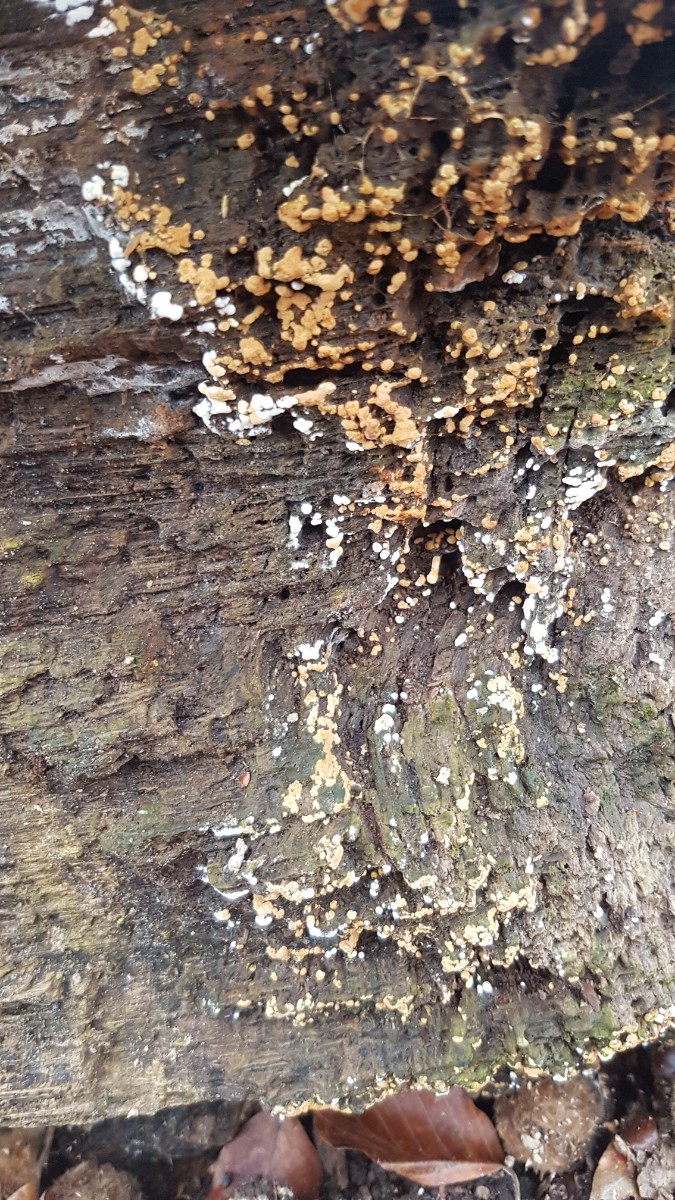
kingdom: Fungi
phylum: Basidiomycota
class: Agaricomycetes
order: Cantharellales
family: Botryobasidiaceae
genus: Botryobasidium
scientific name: Botryobasidium aureum
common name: gylden spindhinde
